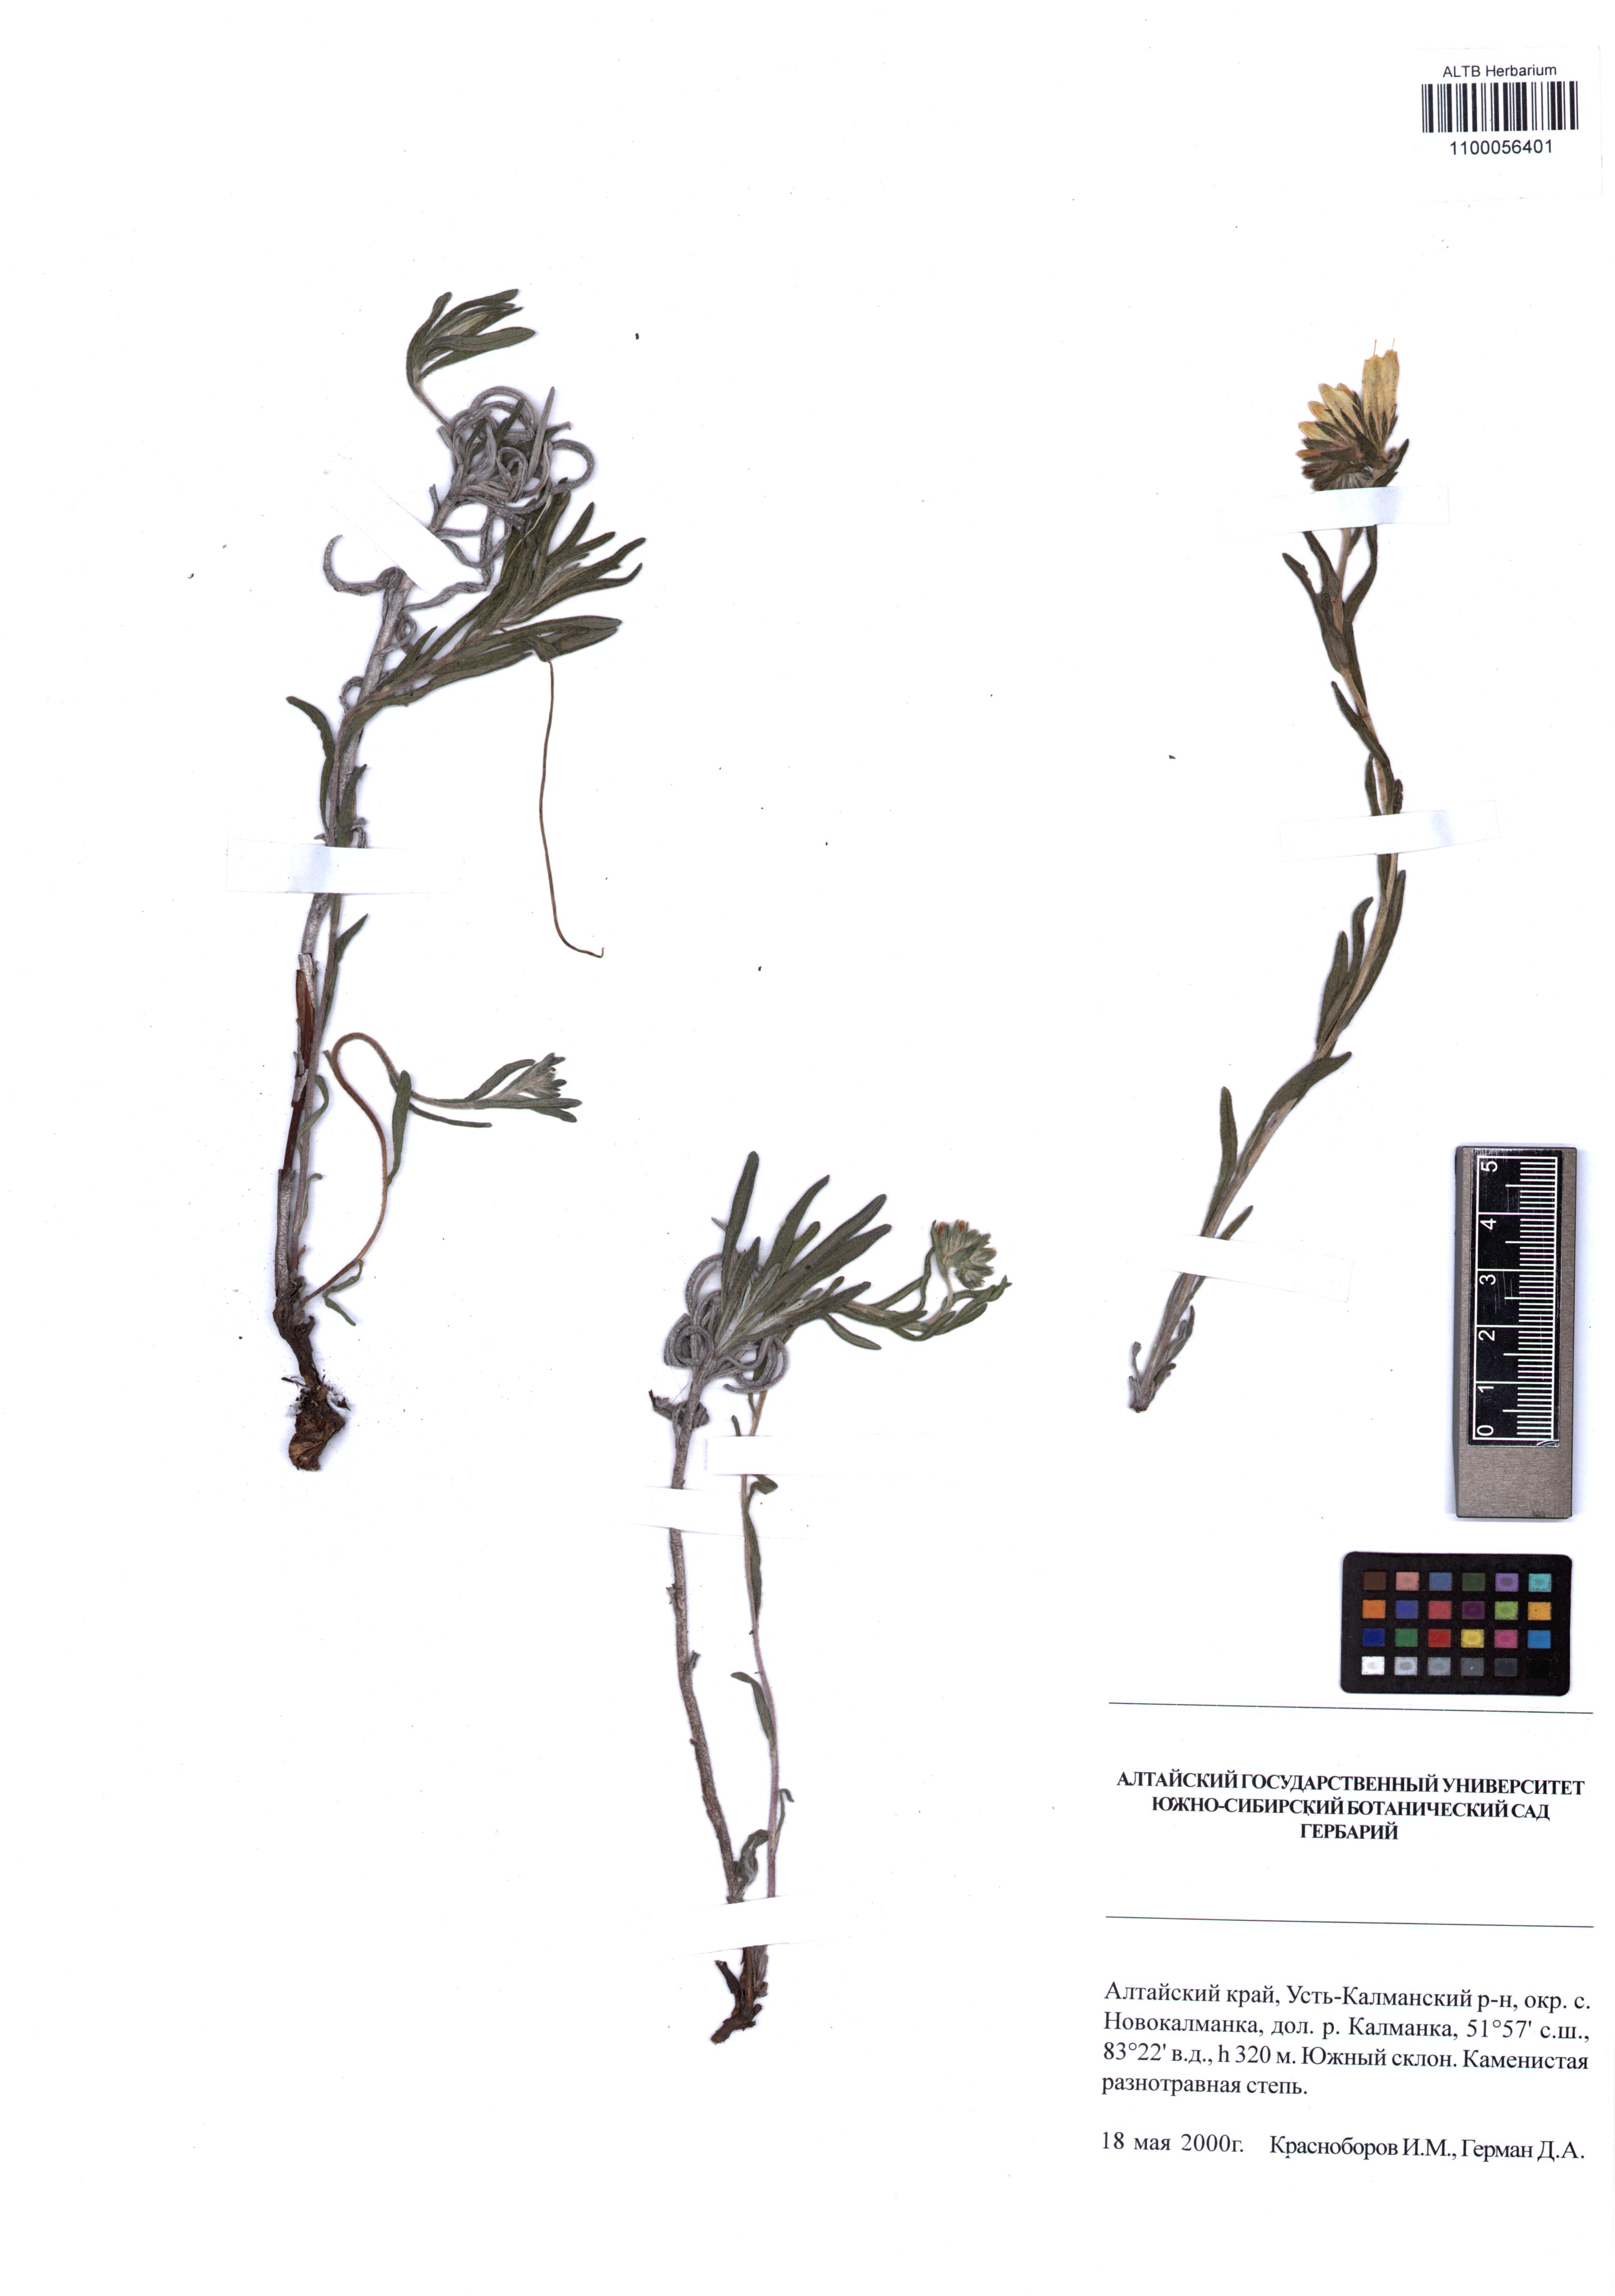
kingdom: Plantae
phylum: Tracheophyta
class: Magnoliopsida
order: Boraginales
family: Boraginaceae
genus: Onosma
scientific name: Onosma simplicissima
